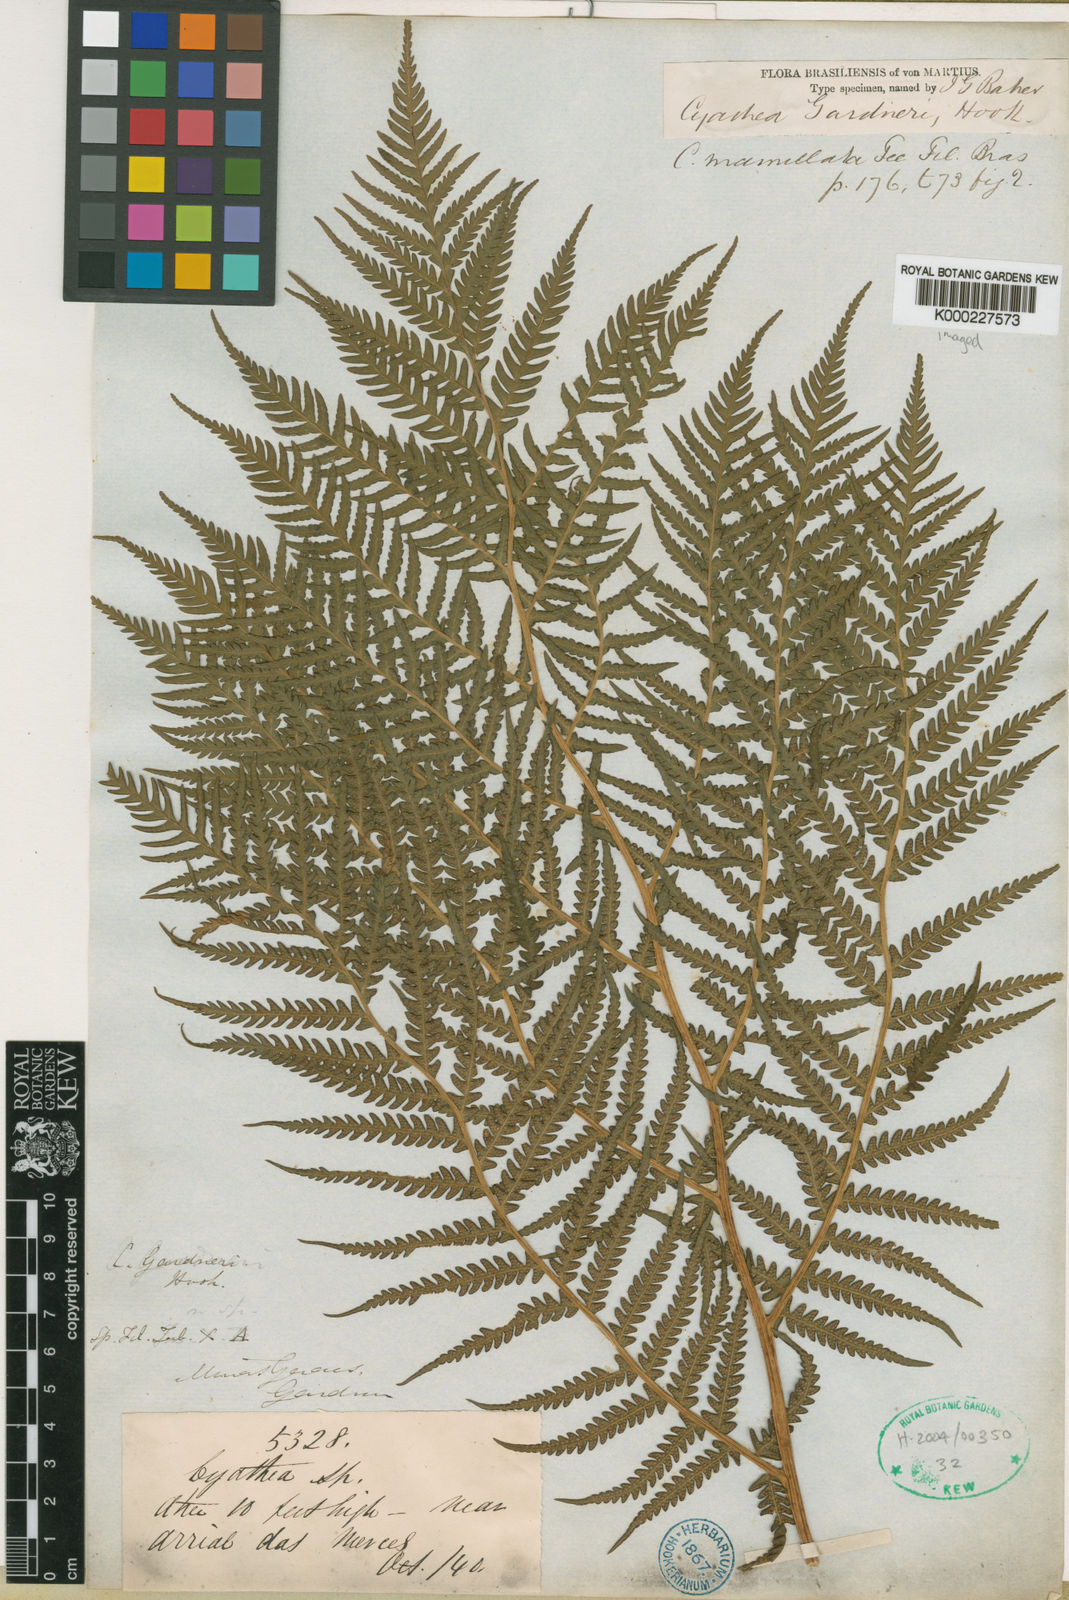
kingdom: Plantae
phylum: Tracheophyta
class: Polypodiopsida
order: Cyatheales
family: Cyatheaceae
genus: Sphaeropteris
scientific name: Sphaeropteris gardneri
